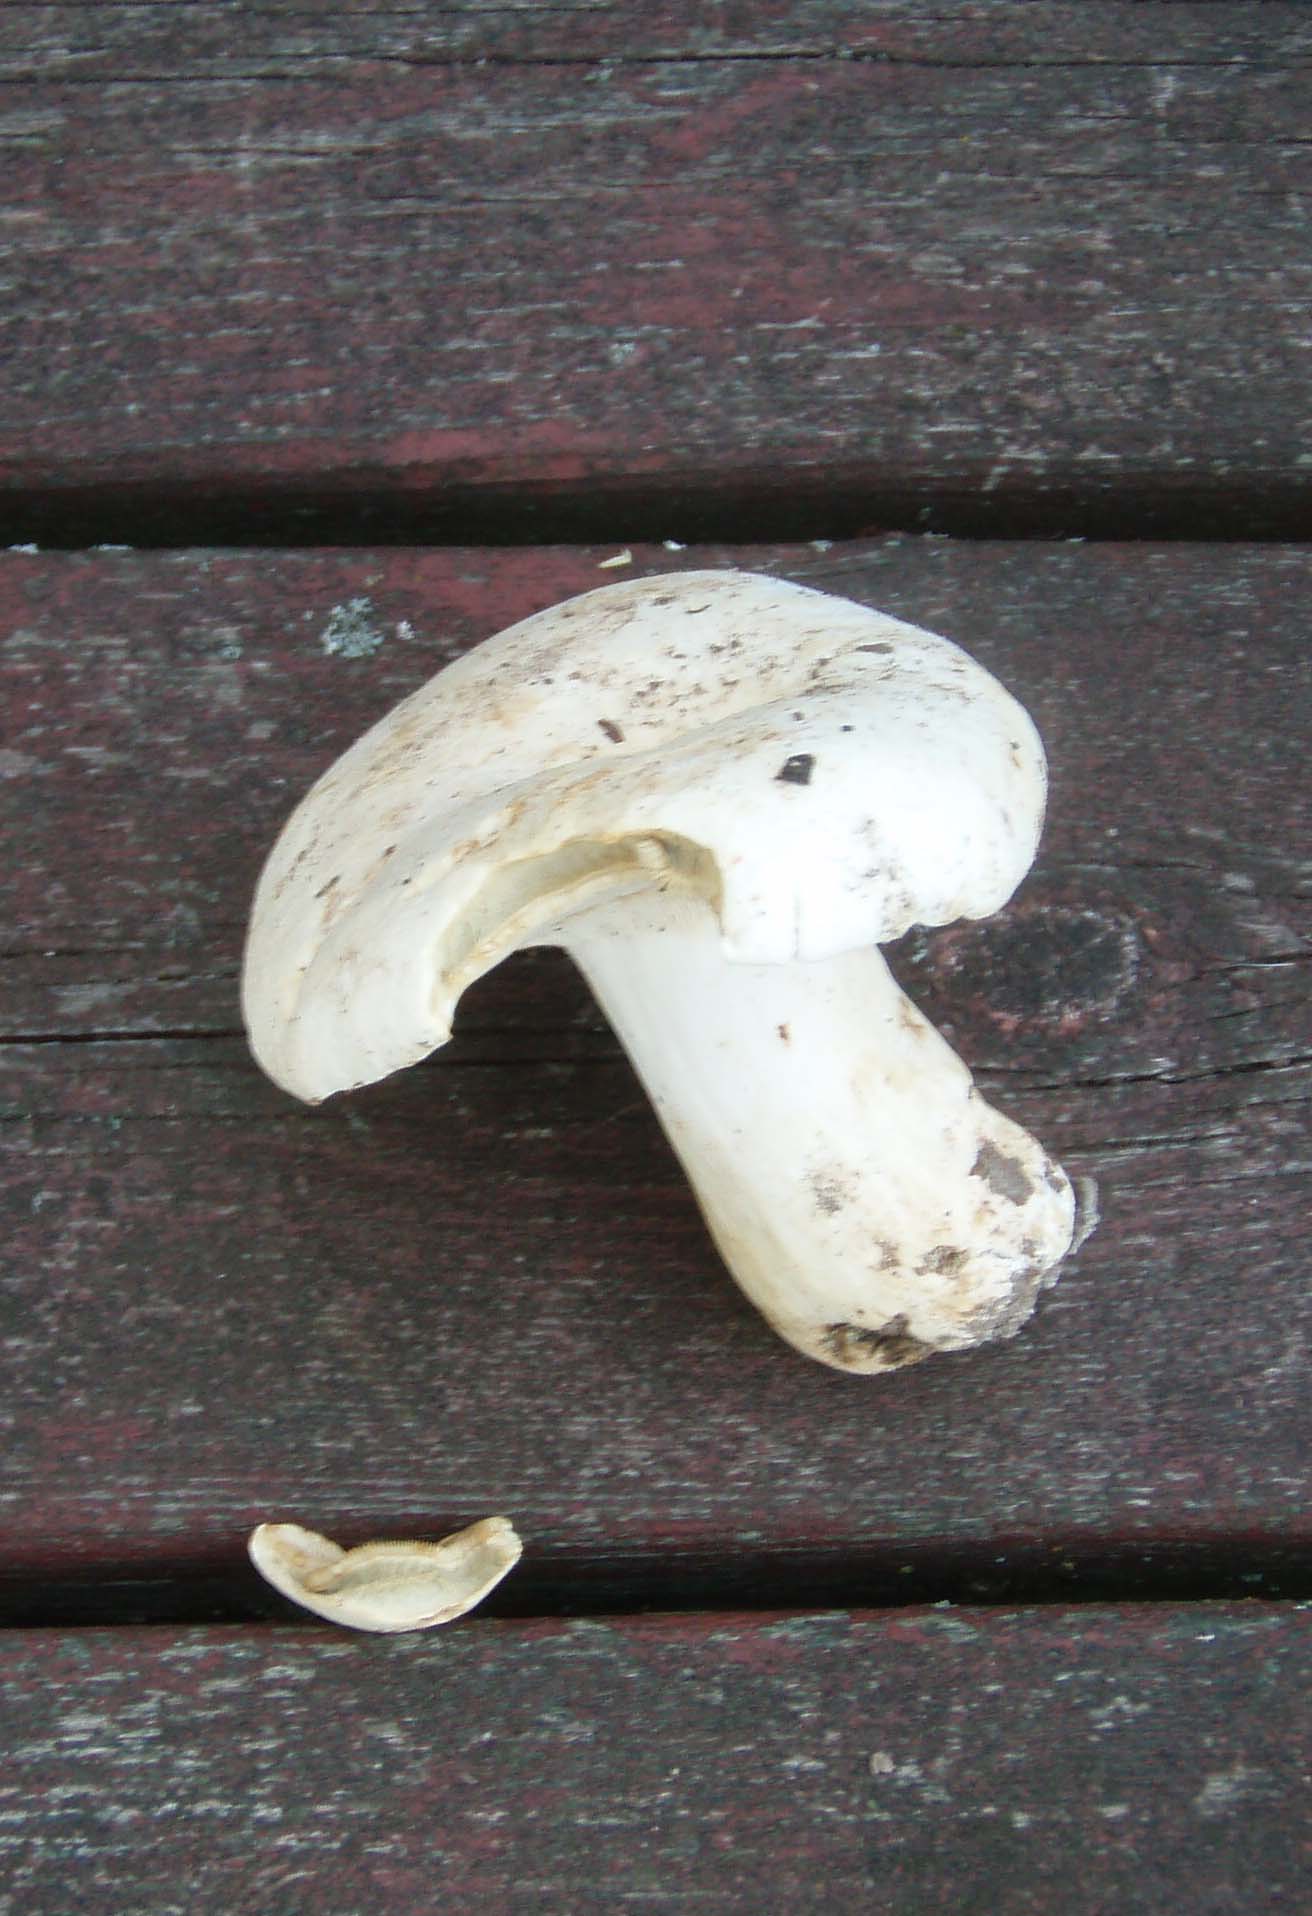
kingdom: Fungi
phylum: Basidiomycota
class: Agaricomycetes
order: Russulales
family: Russulaceae
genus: Lactifluus
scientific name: Lactifluus glaucescens
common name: grønplettet mælkehat
